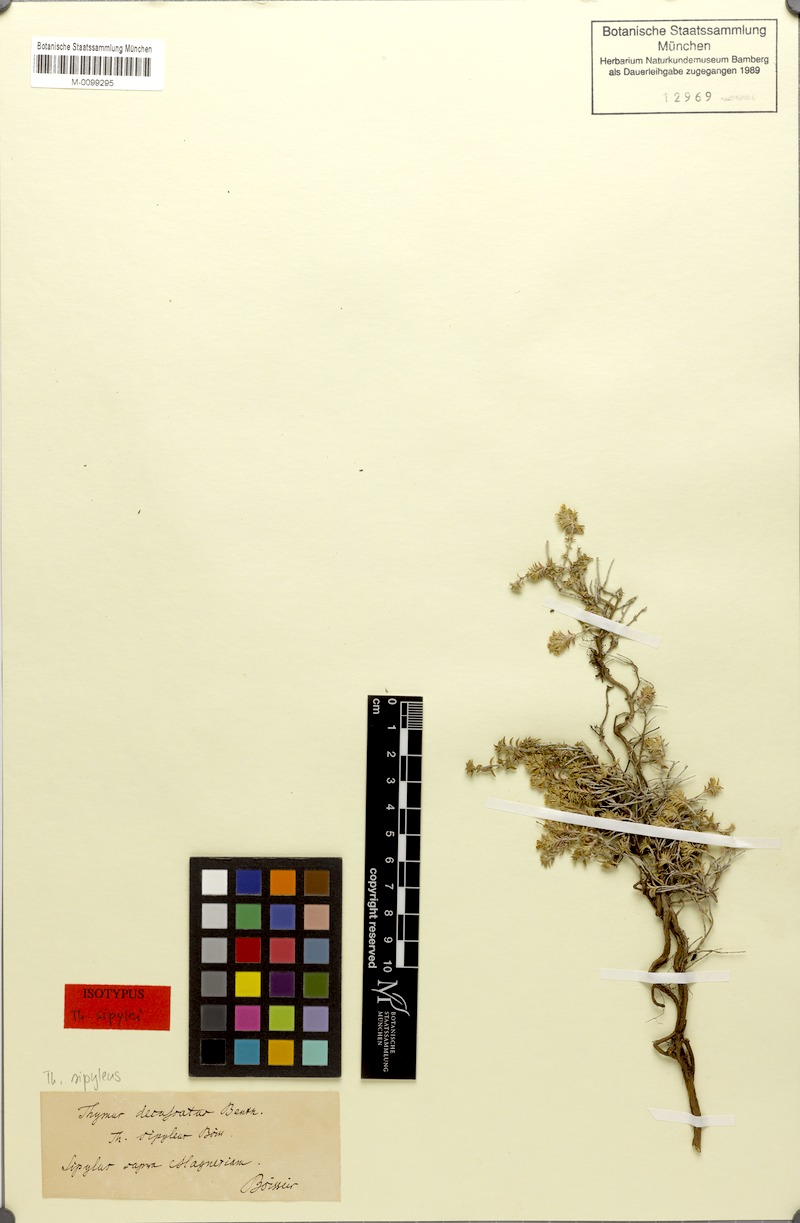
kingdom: Plantae
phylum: Tracheophyta
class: Magnoliopsida
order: Lamiales
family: Lamiaceae
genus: Thymus
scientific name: Thymus sipyleus
